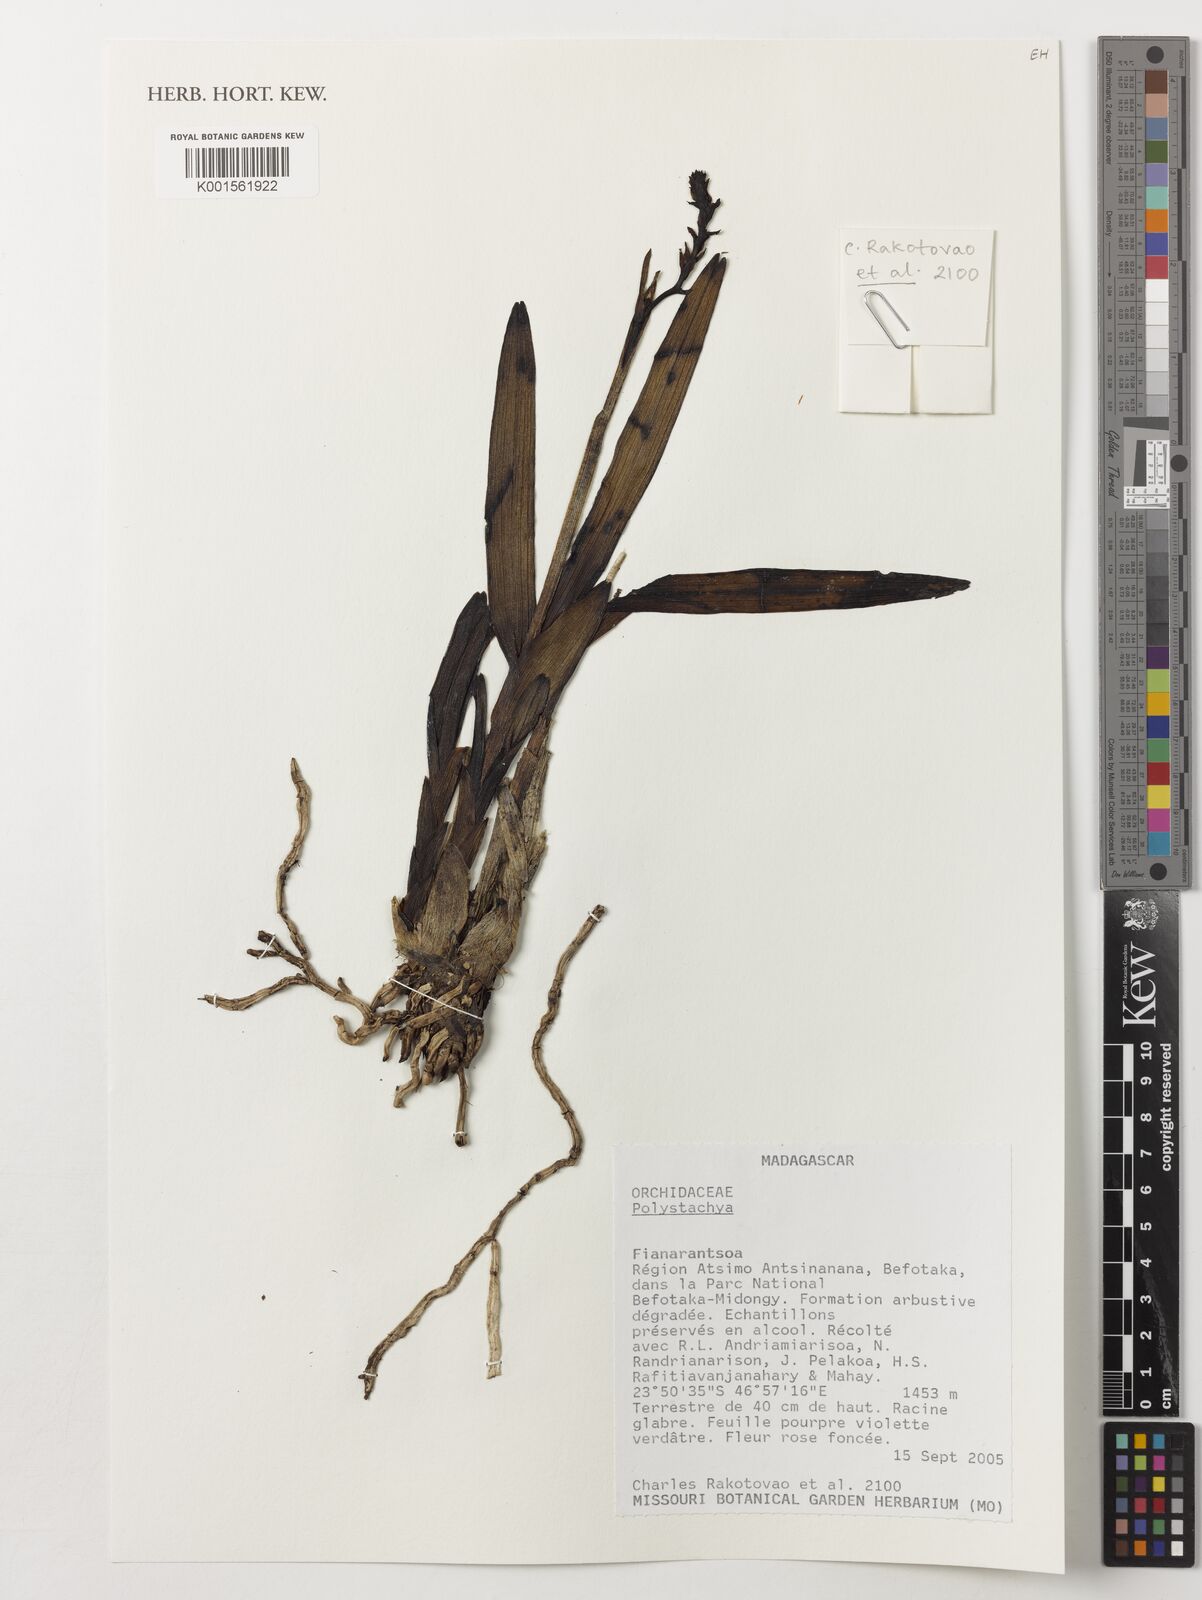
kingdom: Plantae
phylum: Tracheophyta
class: Liliopsida
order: Asparagales
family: Orchidaceae
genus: Polystachya
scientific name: Polystachya
